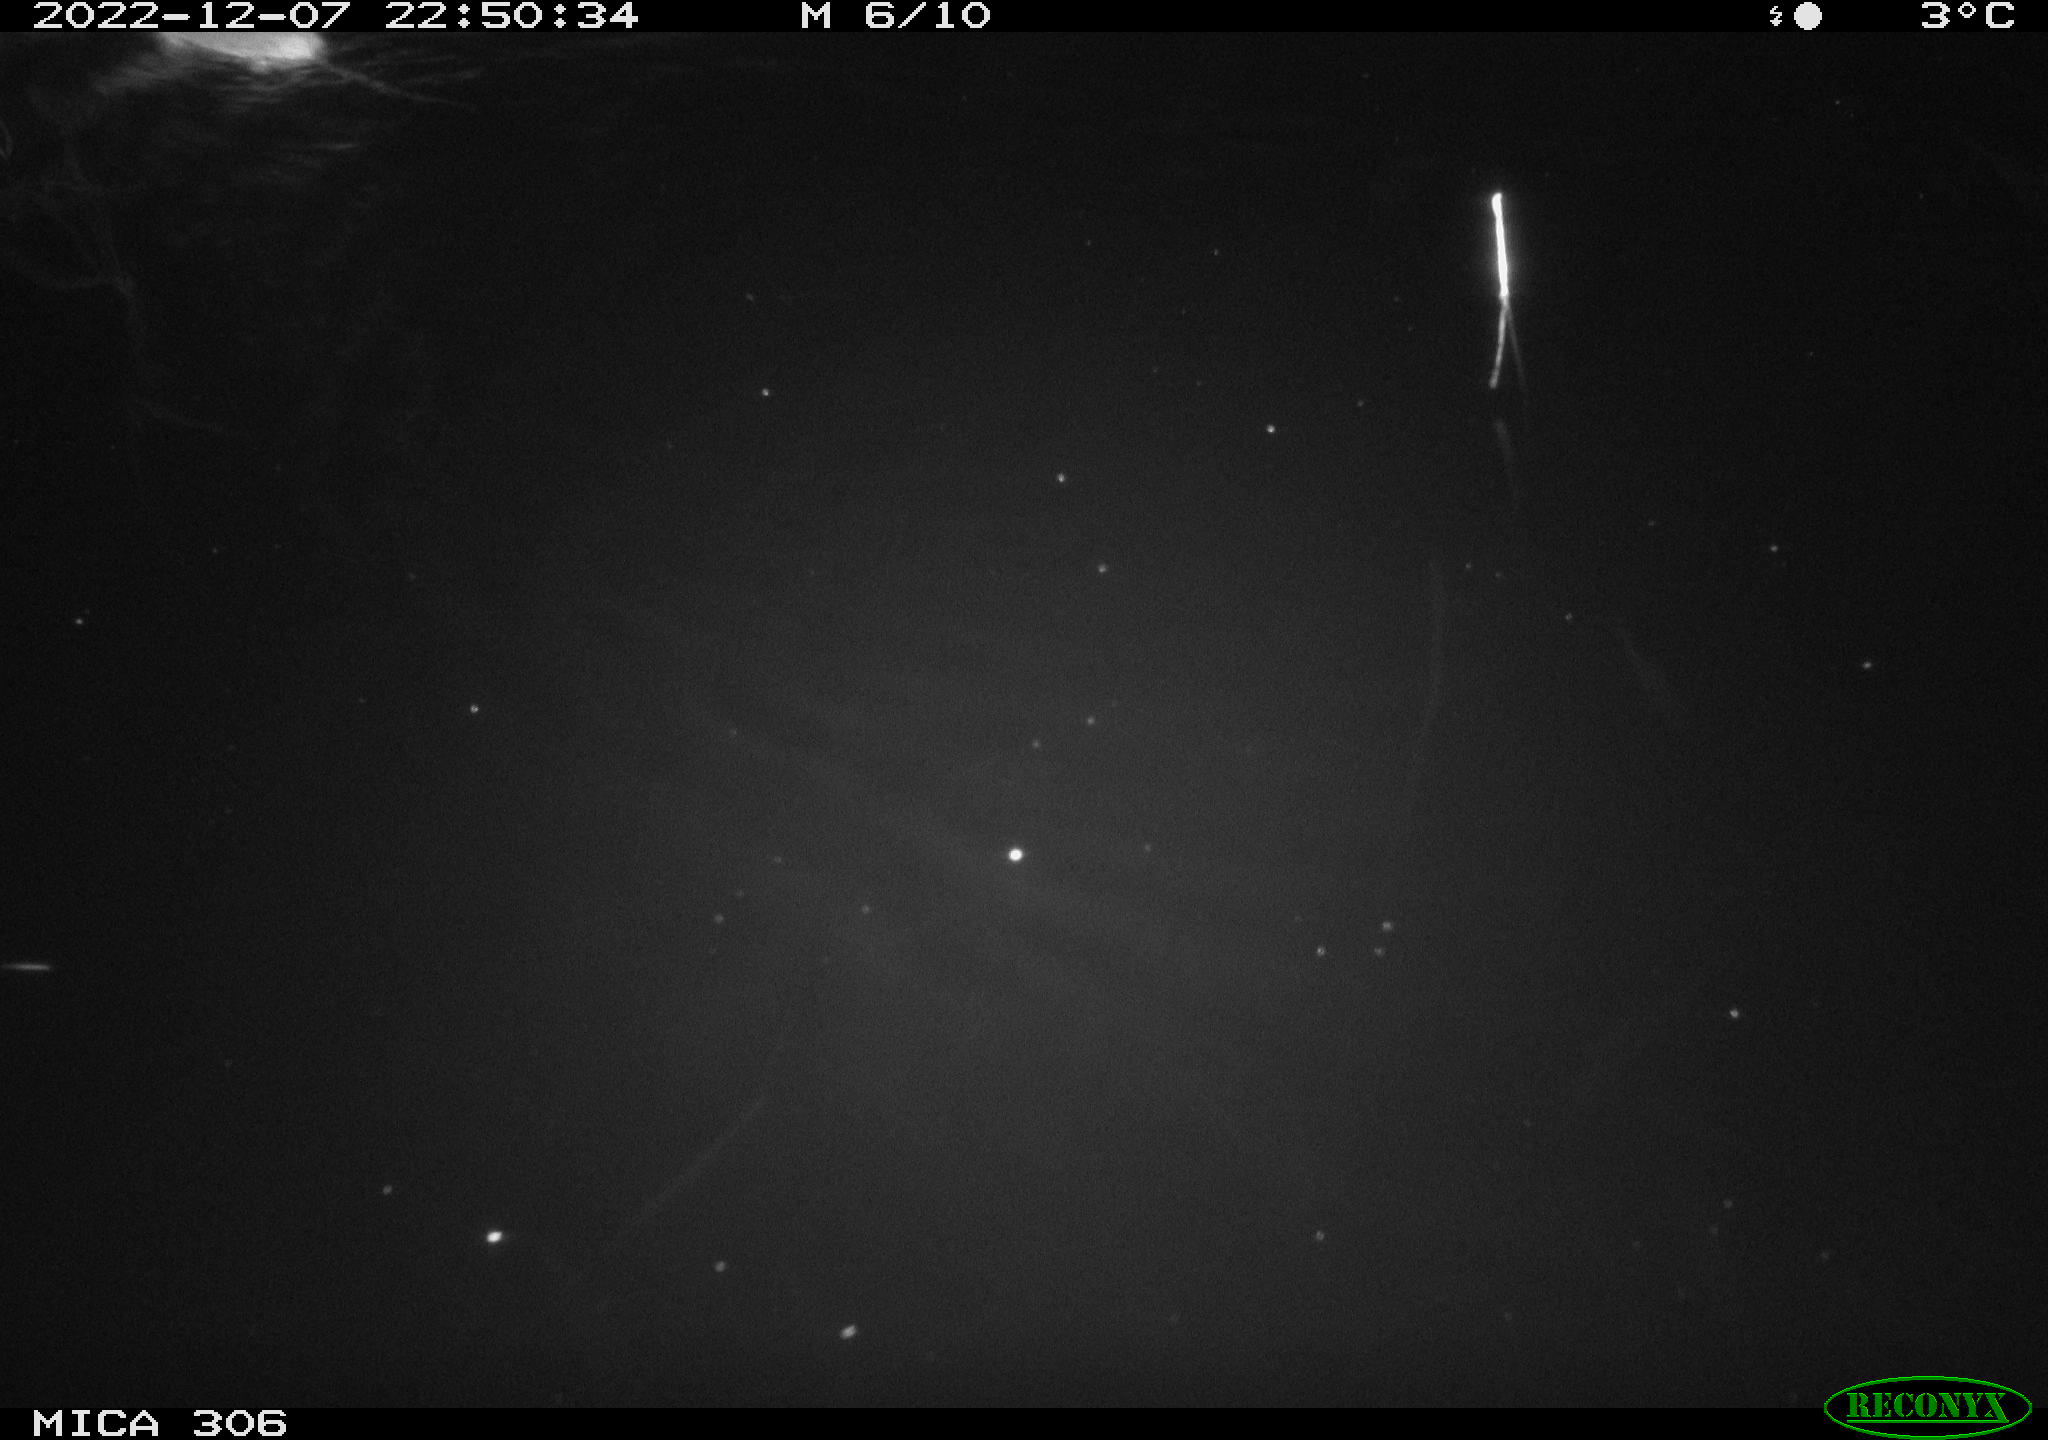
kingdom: Animalia
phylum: Chordata
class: Mammalia
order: Rodentia
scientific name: Rodentia
